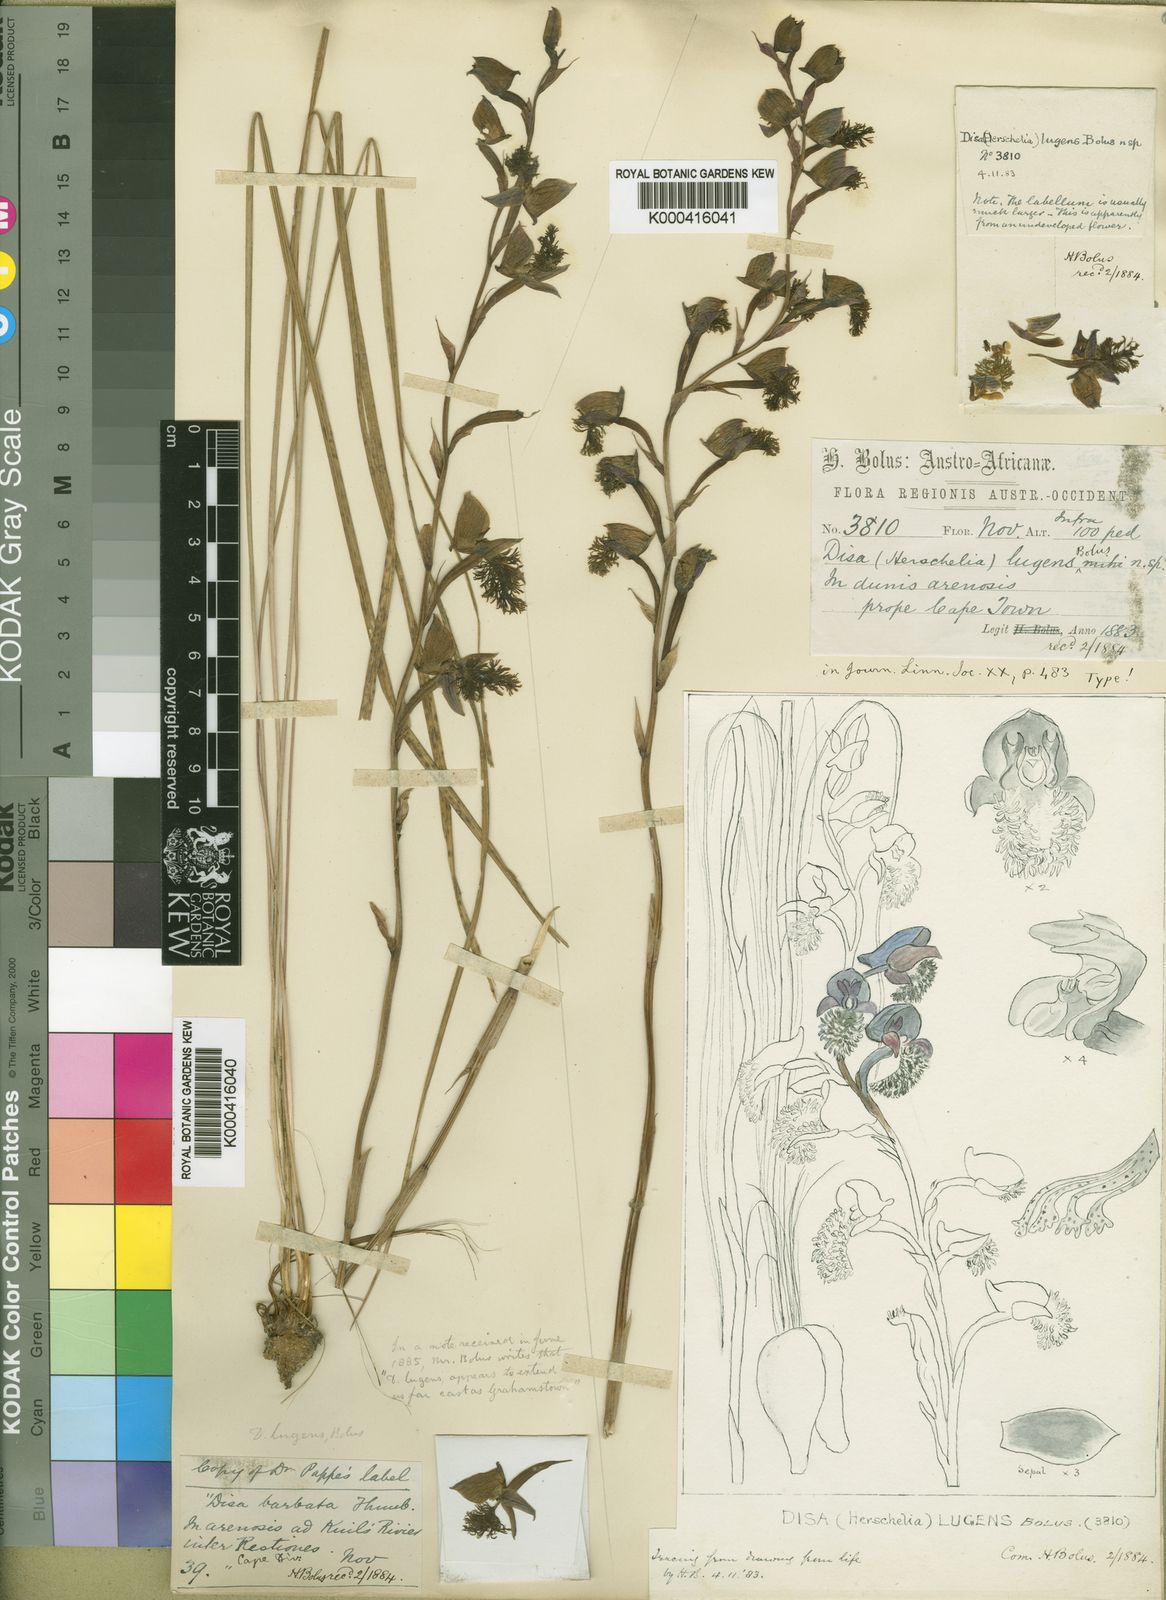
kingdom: Plantae
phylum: Tracheophyta
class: Liliopsida
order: Asparagales
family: Orchidaceae
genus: Disa
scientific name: Disa lugens
